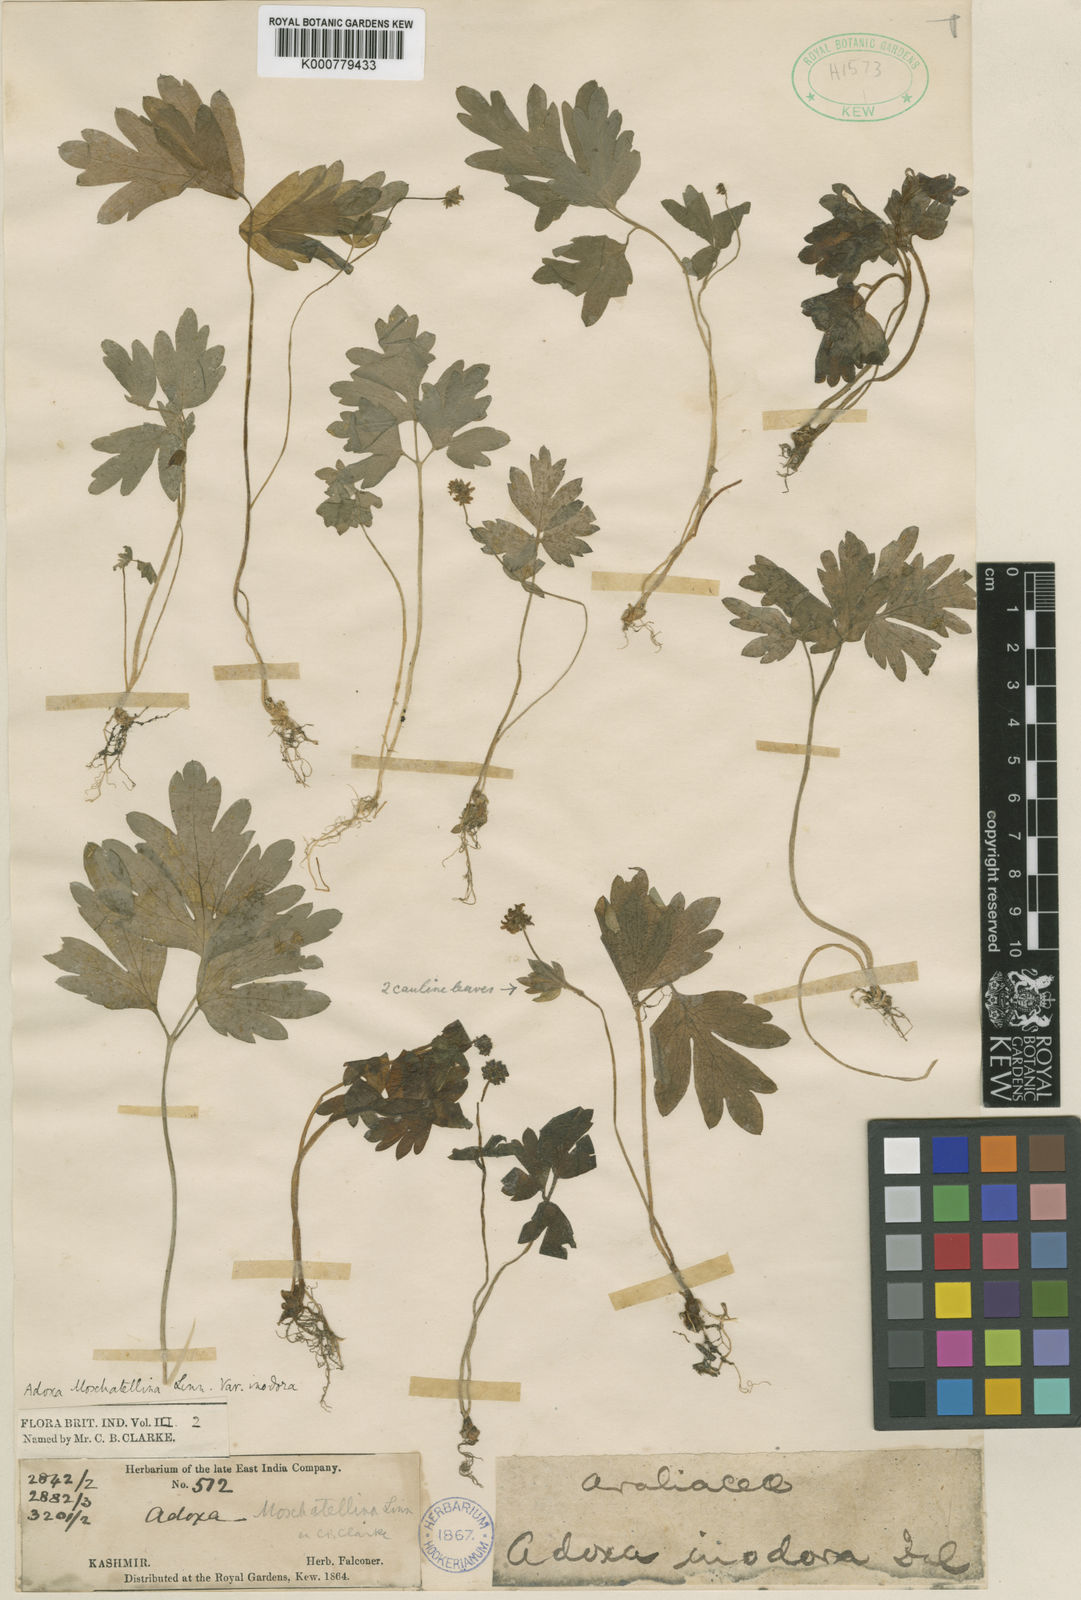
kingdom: Plantae
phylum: Tracheophyta
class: Magnoliopsida
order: Dipsacales
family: Viburnaceae
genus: Adoxa
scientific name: Adoxa moschatellina
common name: Moschatel
